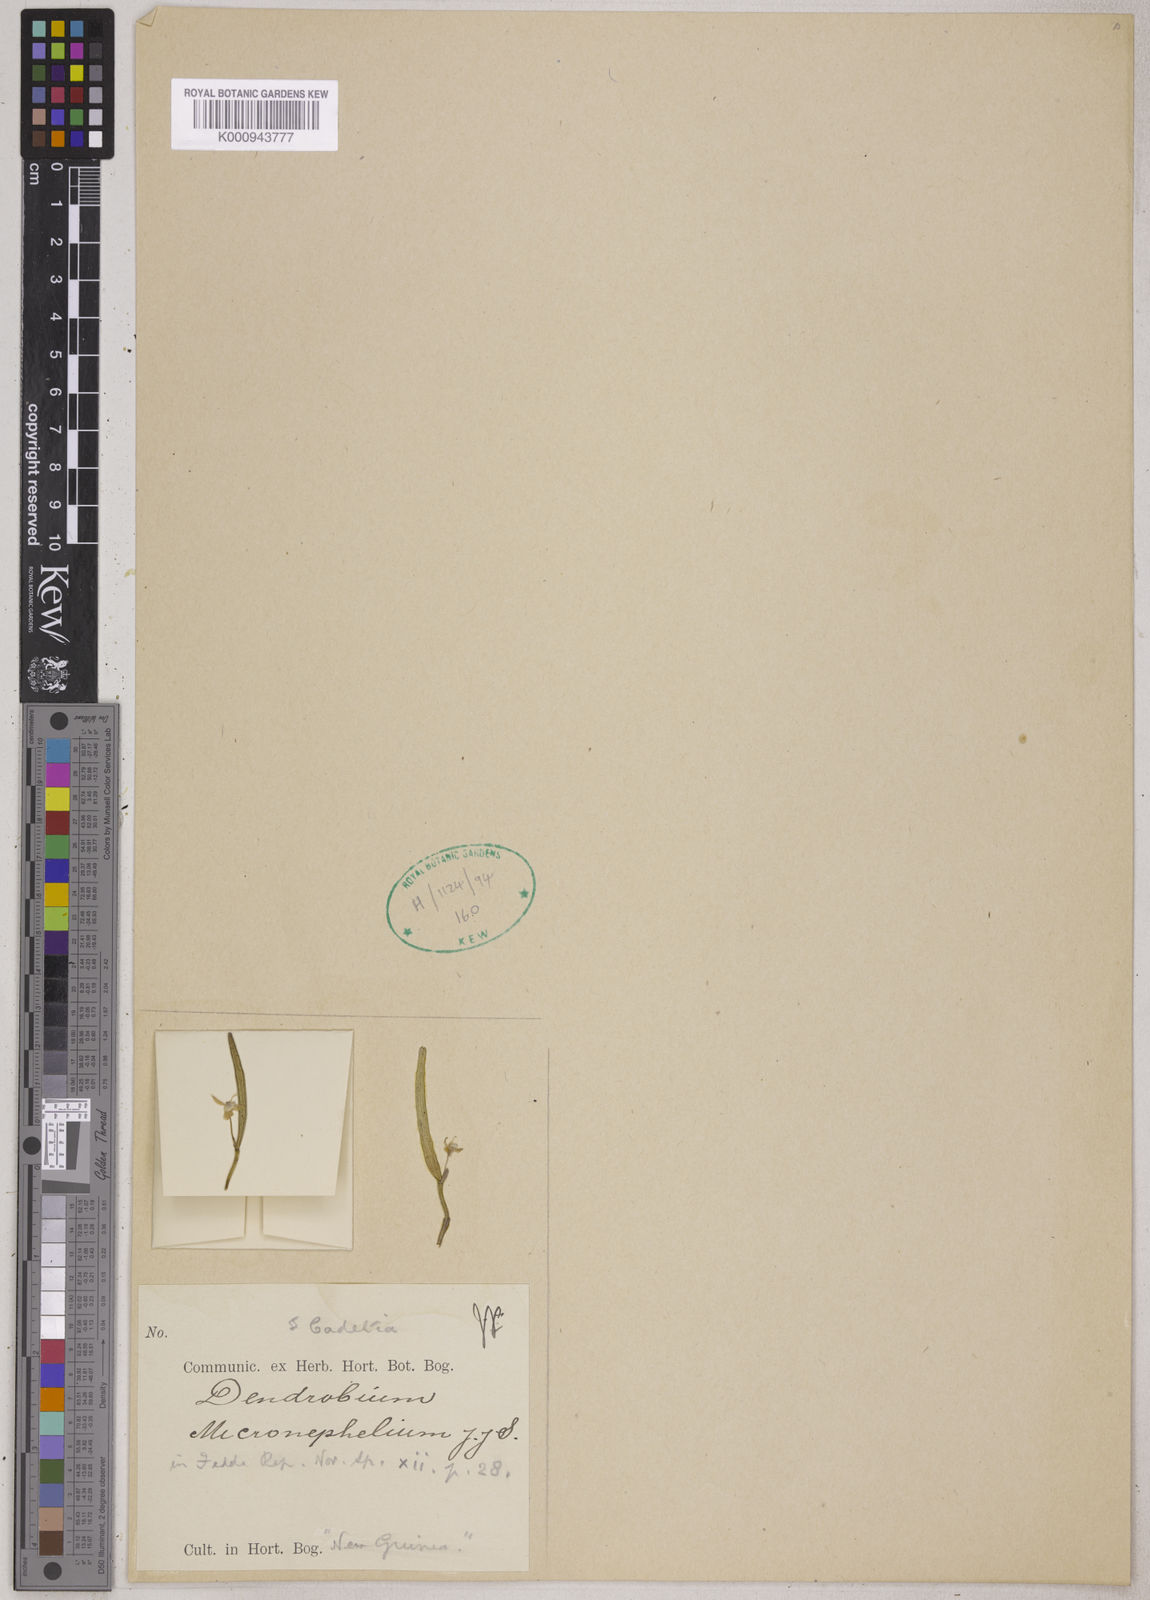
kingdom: Plantae
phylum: Tracheophyta
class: Liliopsida
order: Asparagales
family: Orchidaceae
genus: Dendrobium
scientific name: Dendrobium micronephelium
